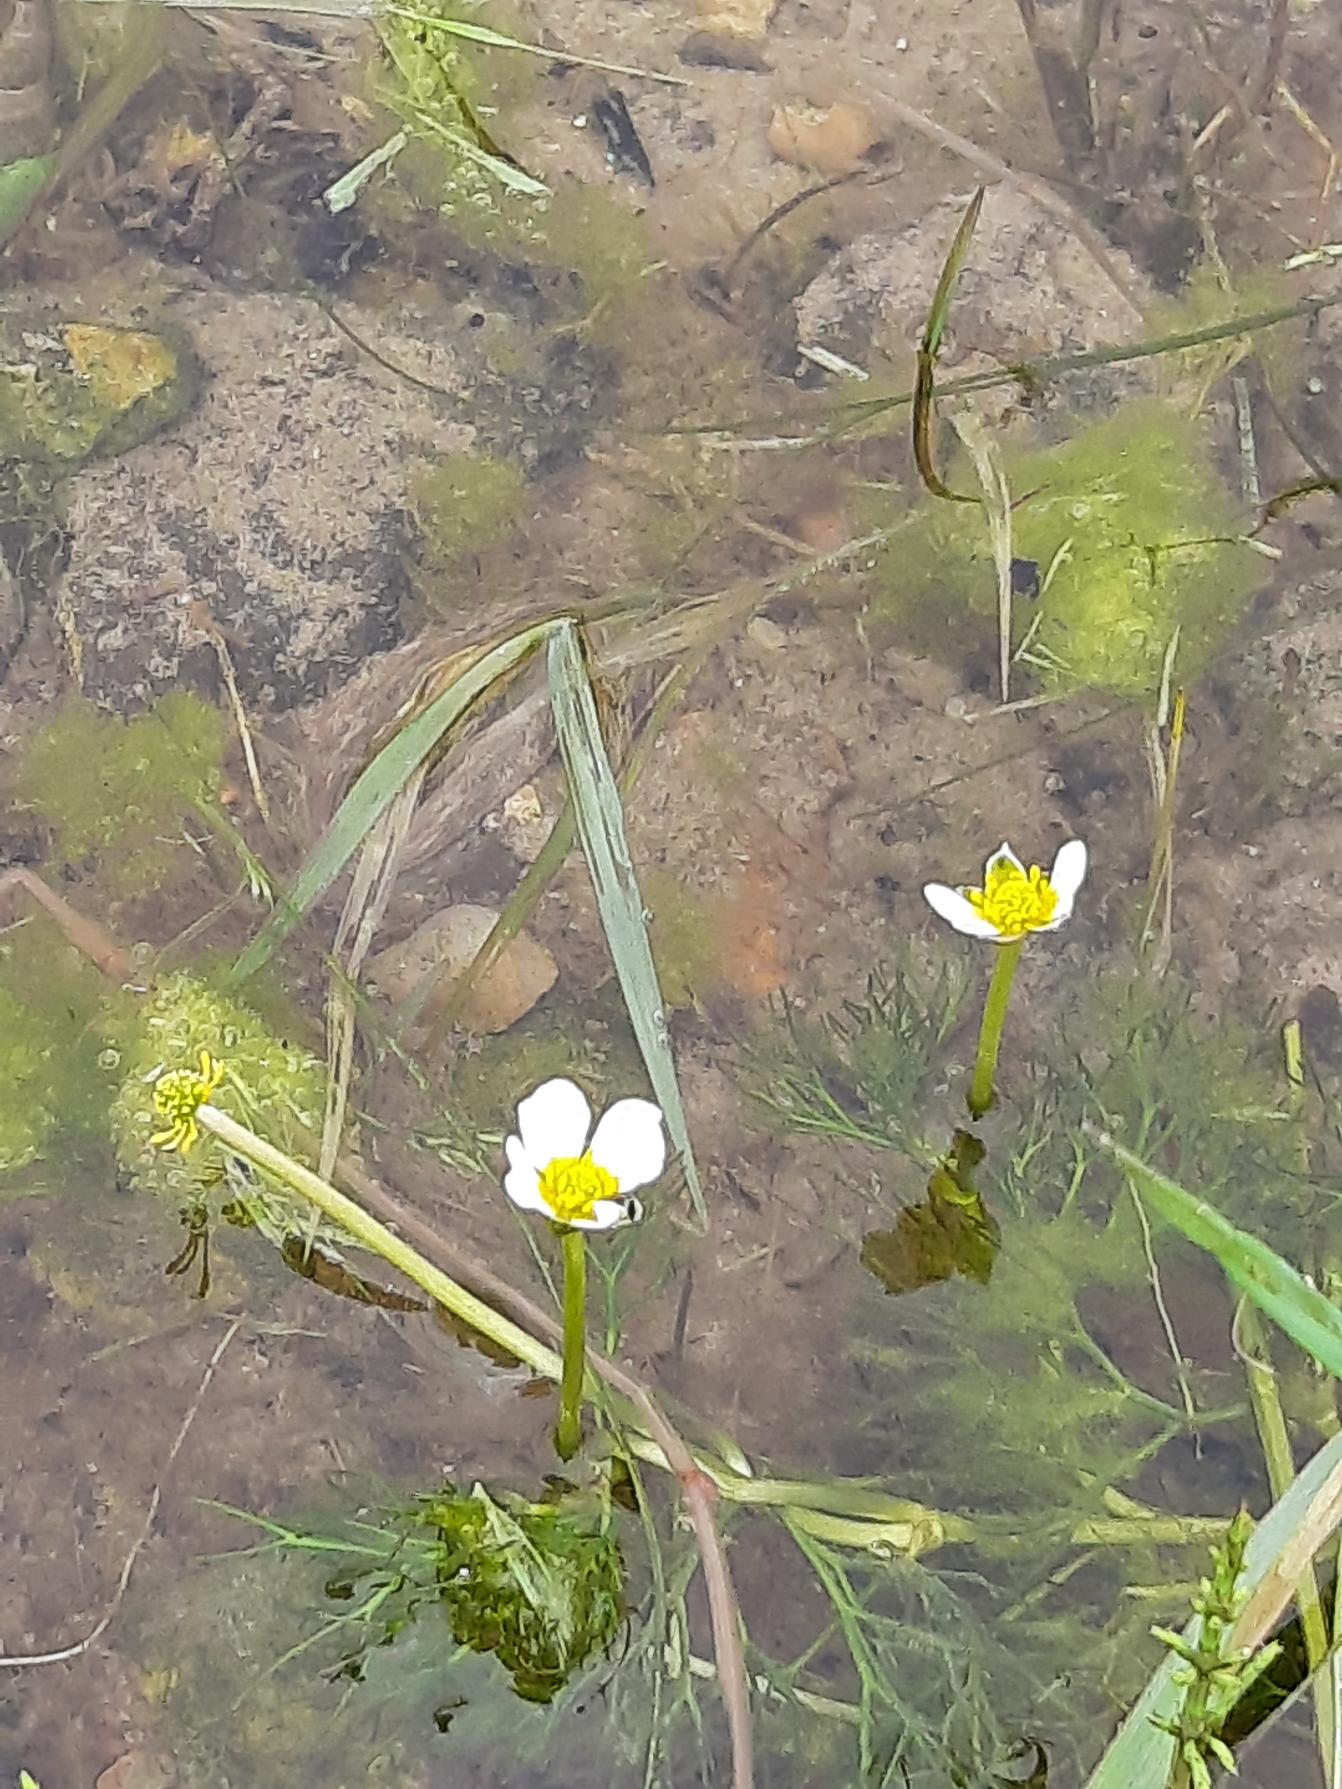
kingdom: Plantae
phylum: Tracheophyta
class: Magnoliopsida
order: Ranunculales
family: Ranunculaceae
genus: Ranunculus
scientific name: Ranunculus
